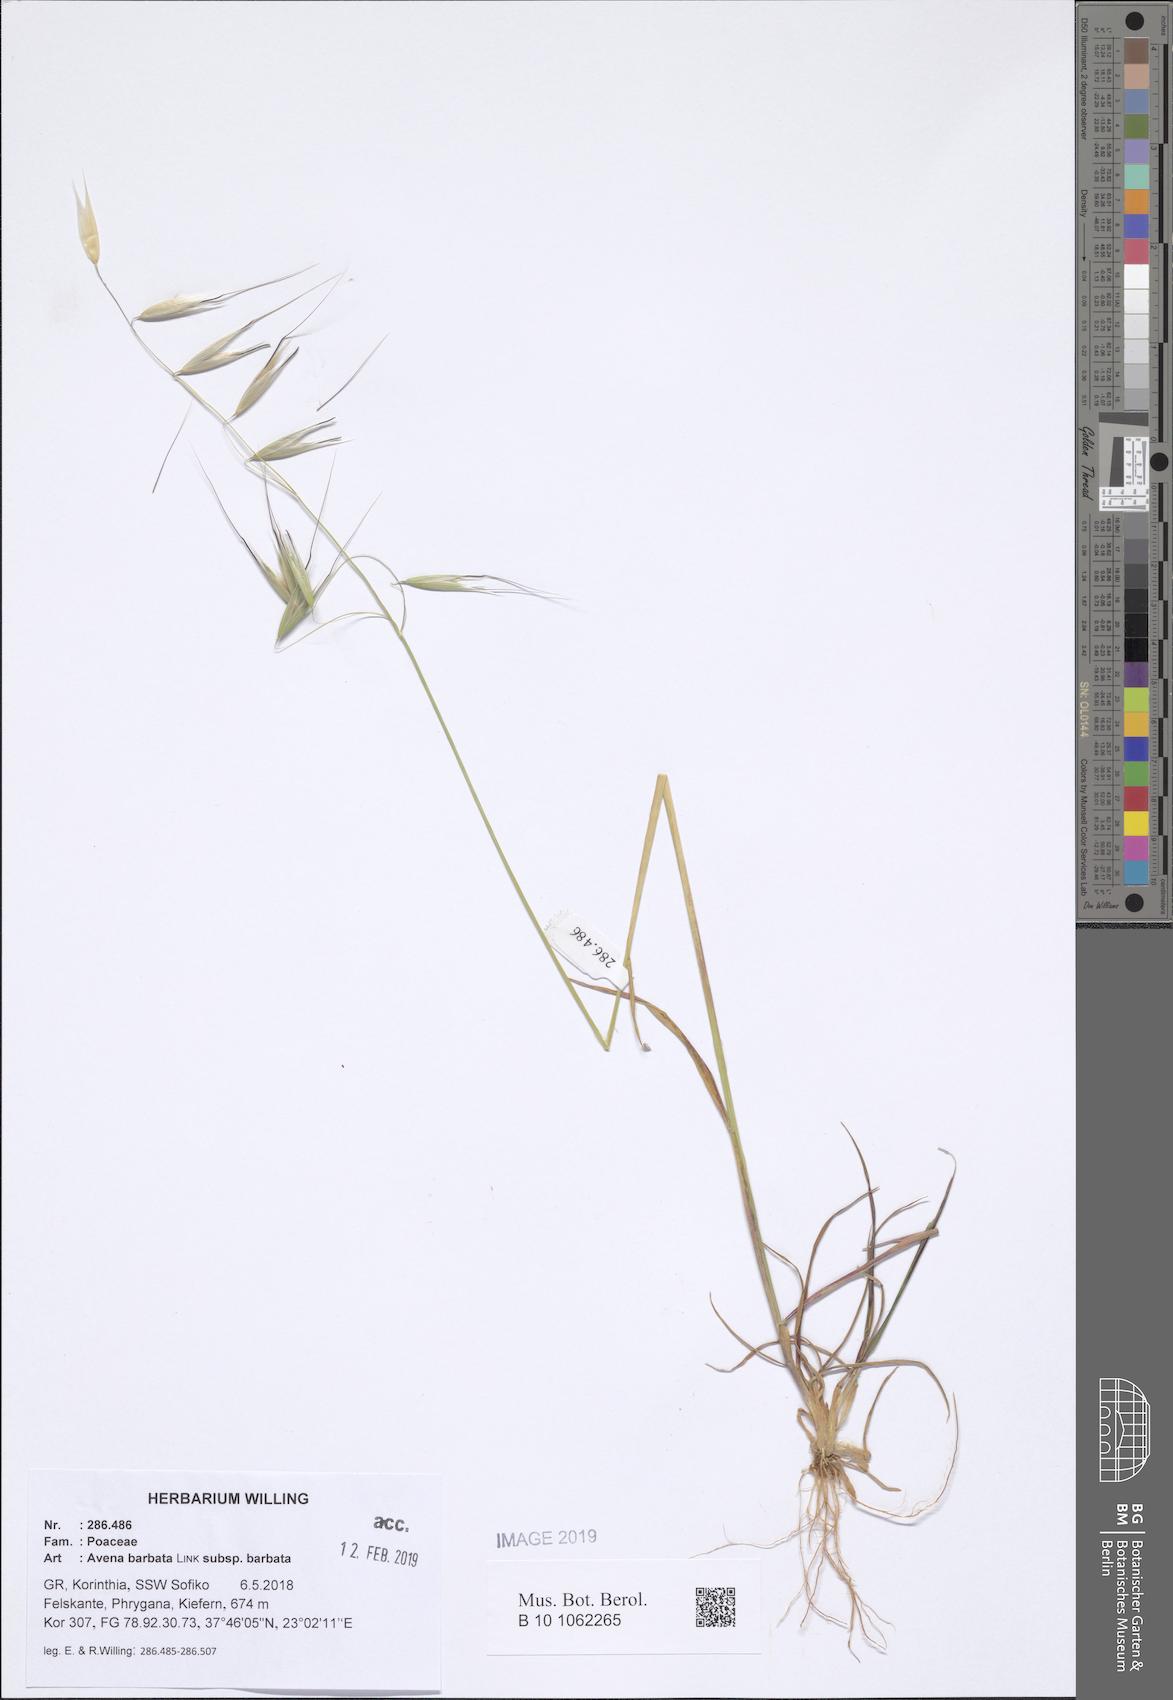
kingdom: Plantae
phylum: Tracheophyta
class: Liliopsida
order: Poales
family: Poaceae
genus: Avena
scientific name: Avena barbata
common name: Slender oat
